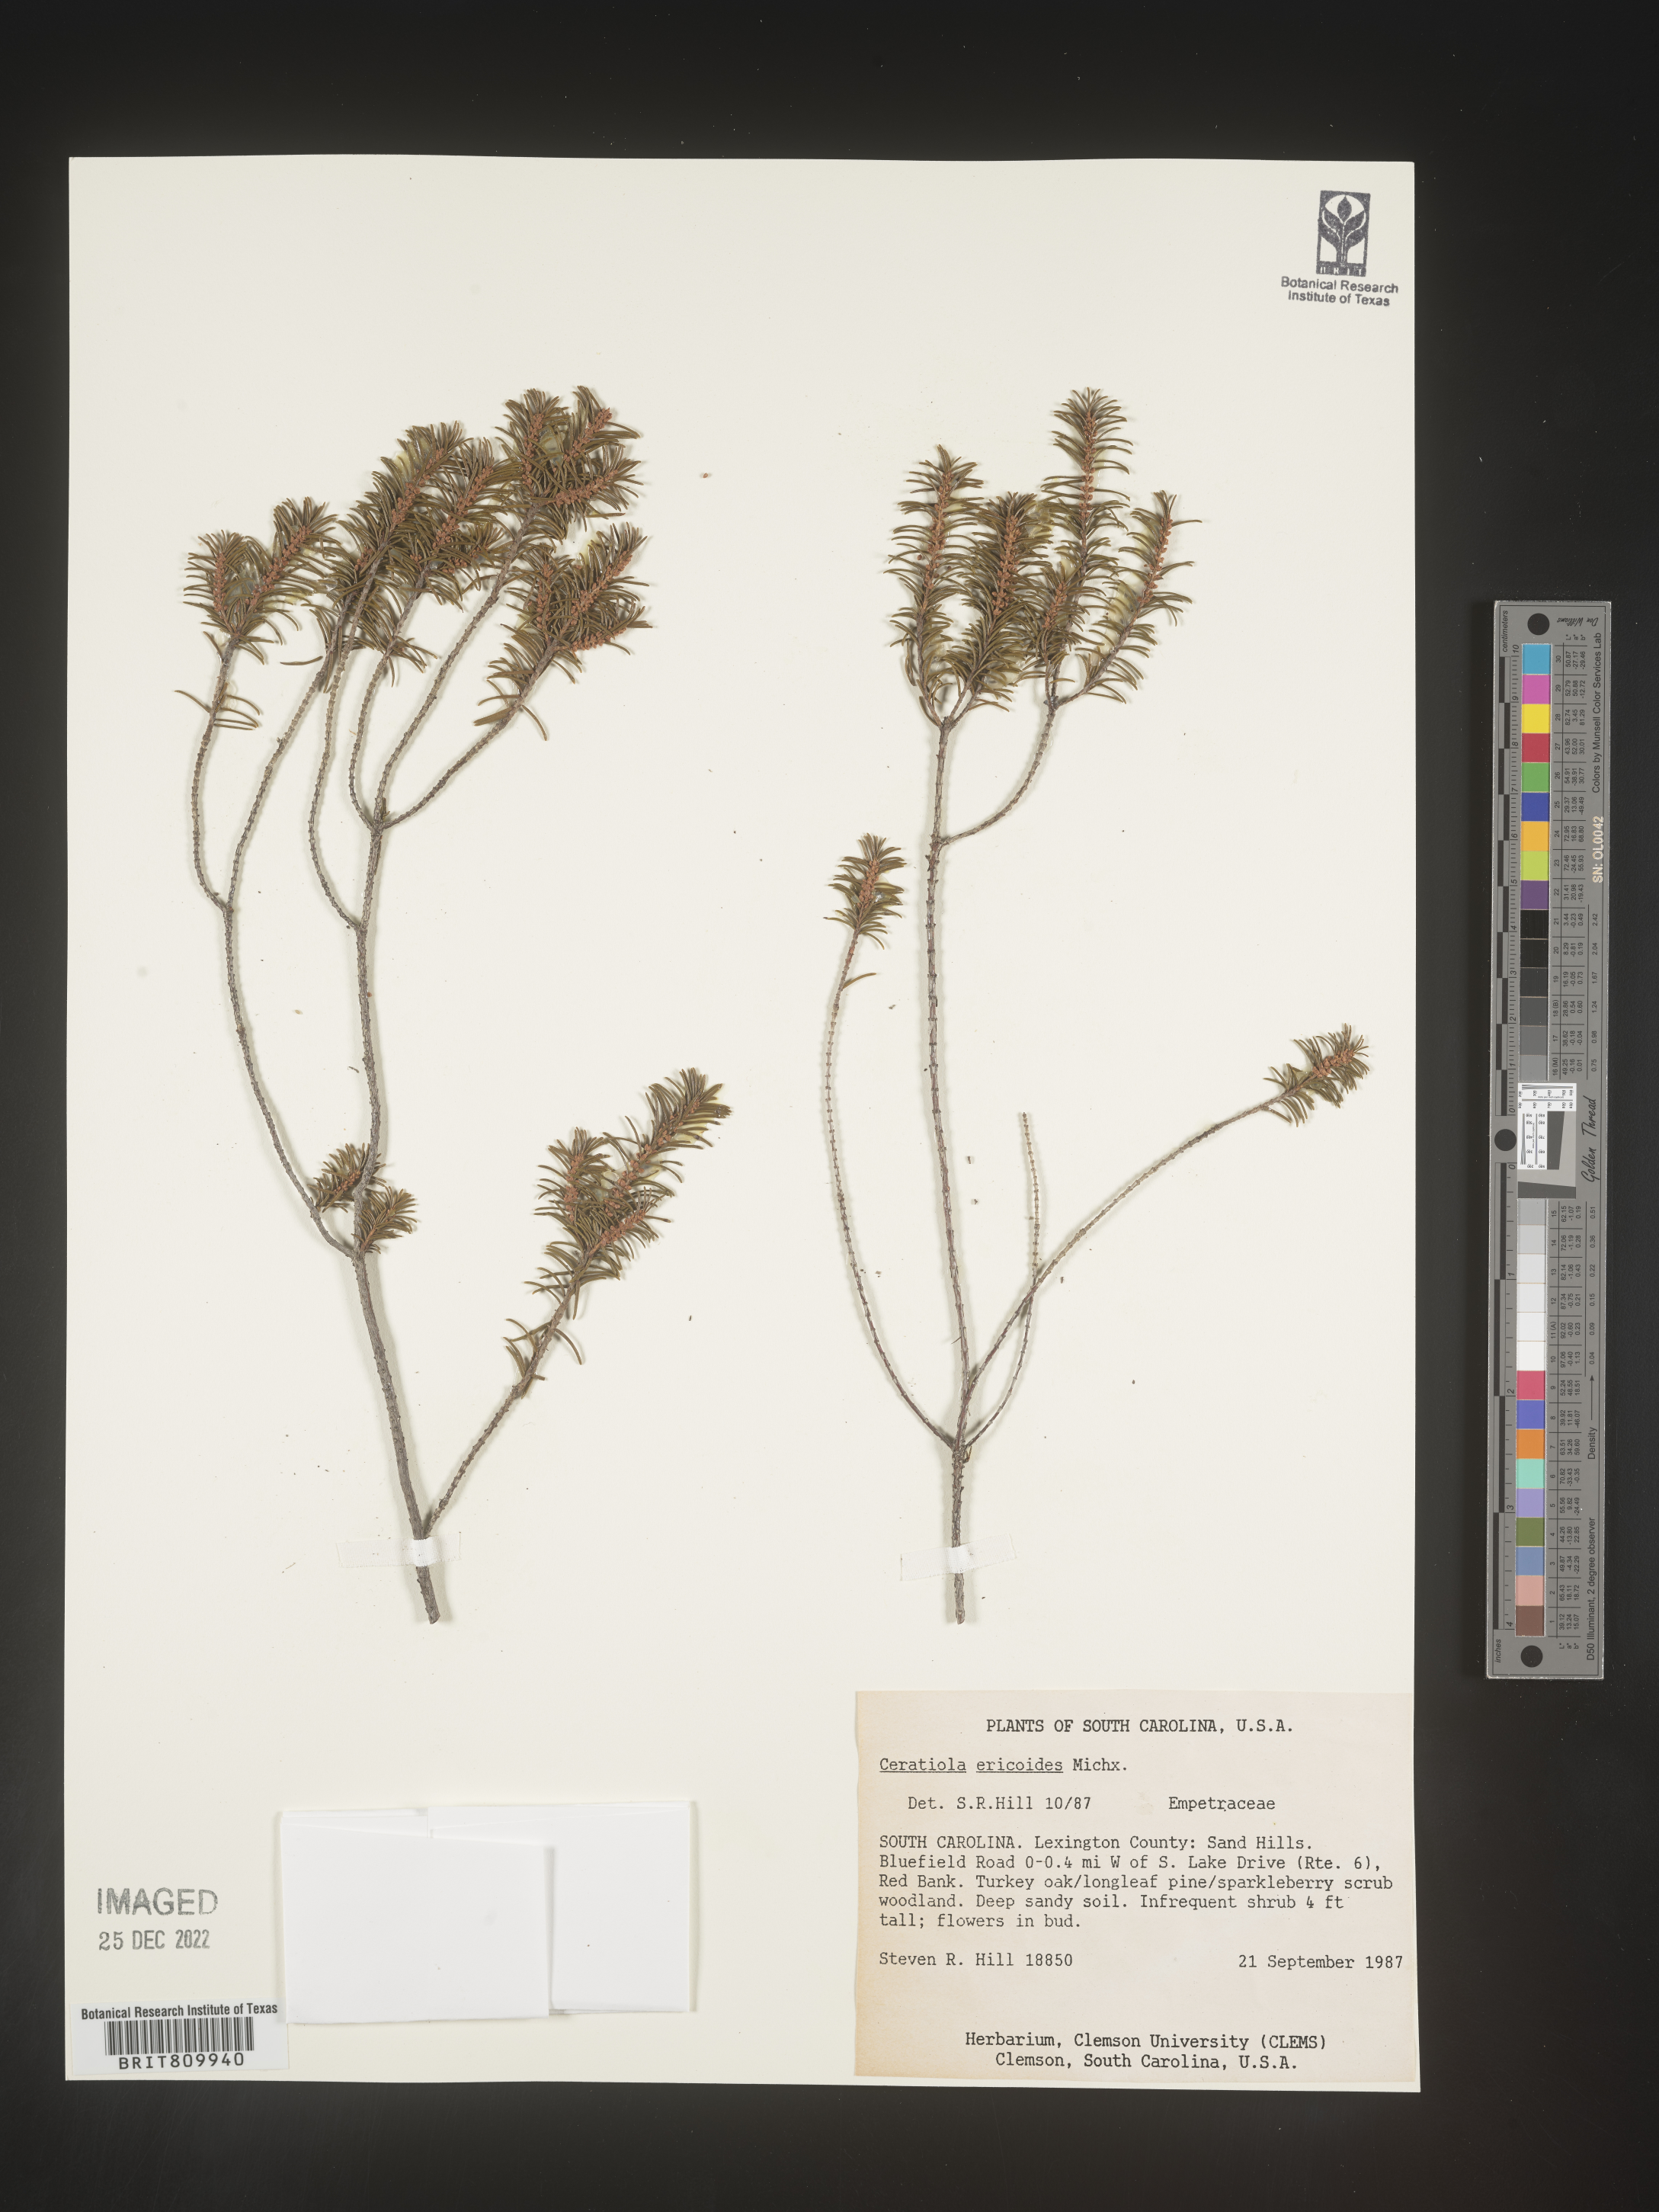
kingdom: Plantae
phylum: Tracheophyta
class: Magnoliopsida
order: Ericales
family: Ericaceae
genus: Ceratiola
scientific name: Ceratiola ericoides
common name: Sandhill-rosemary
